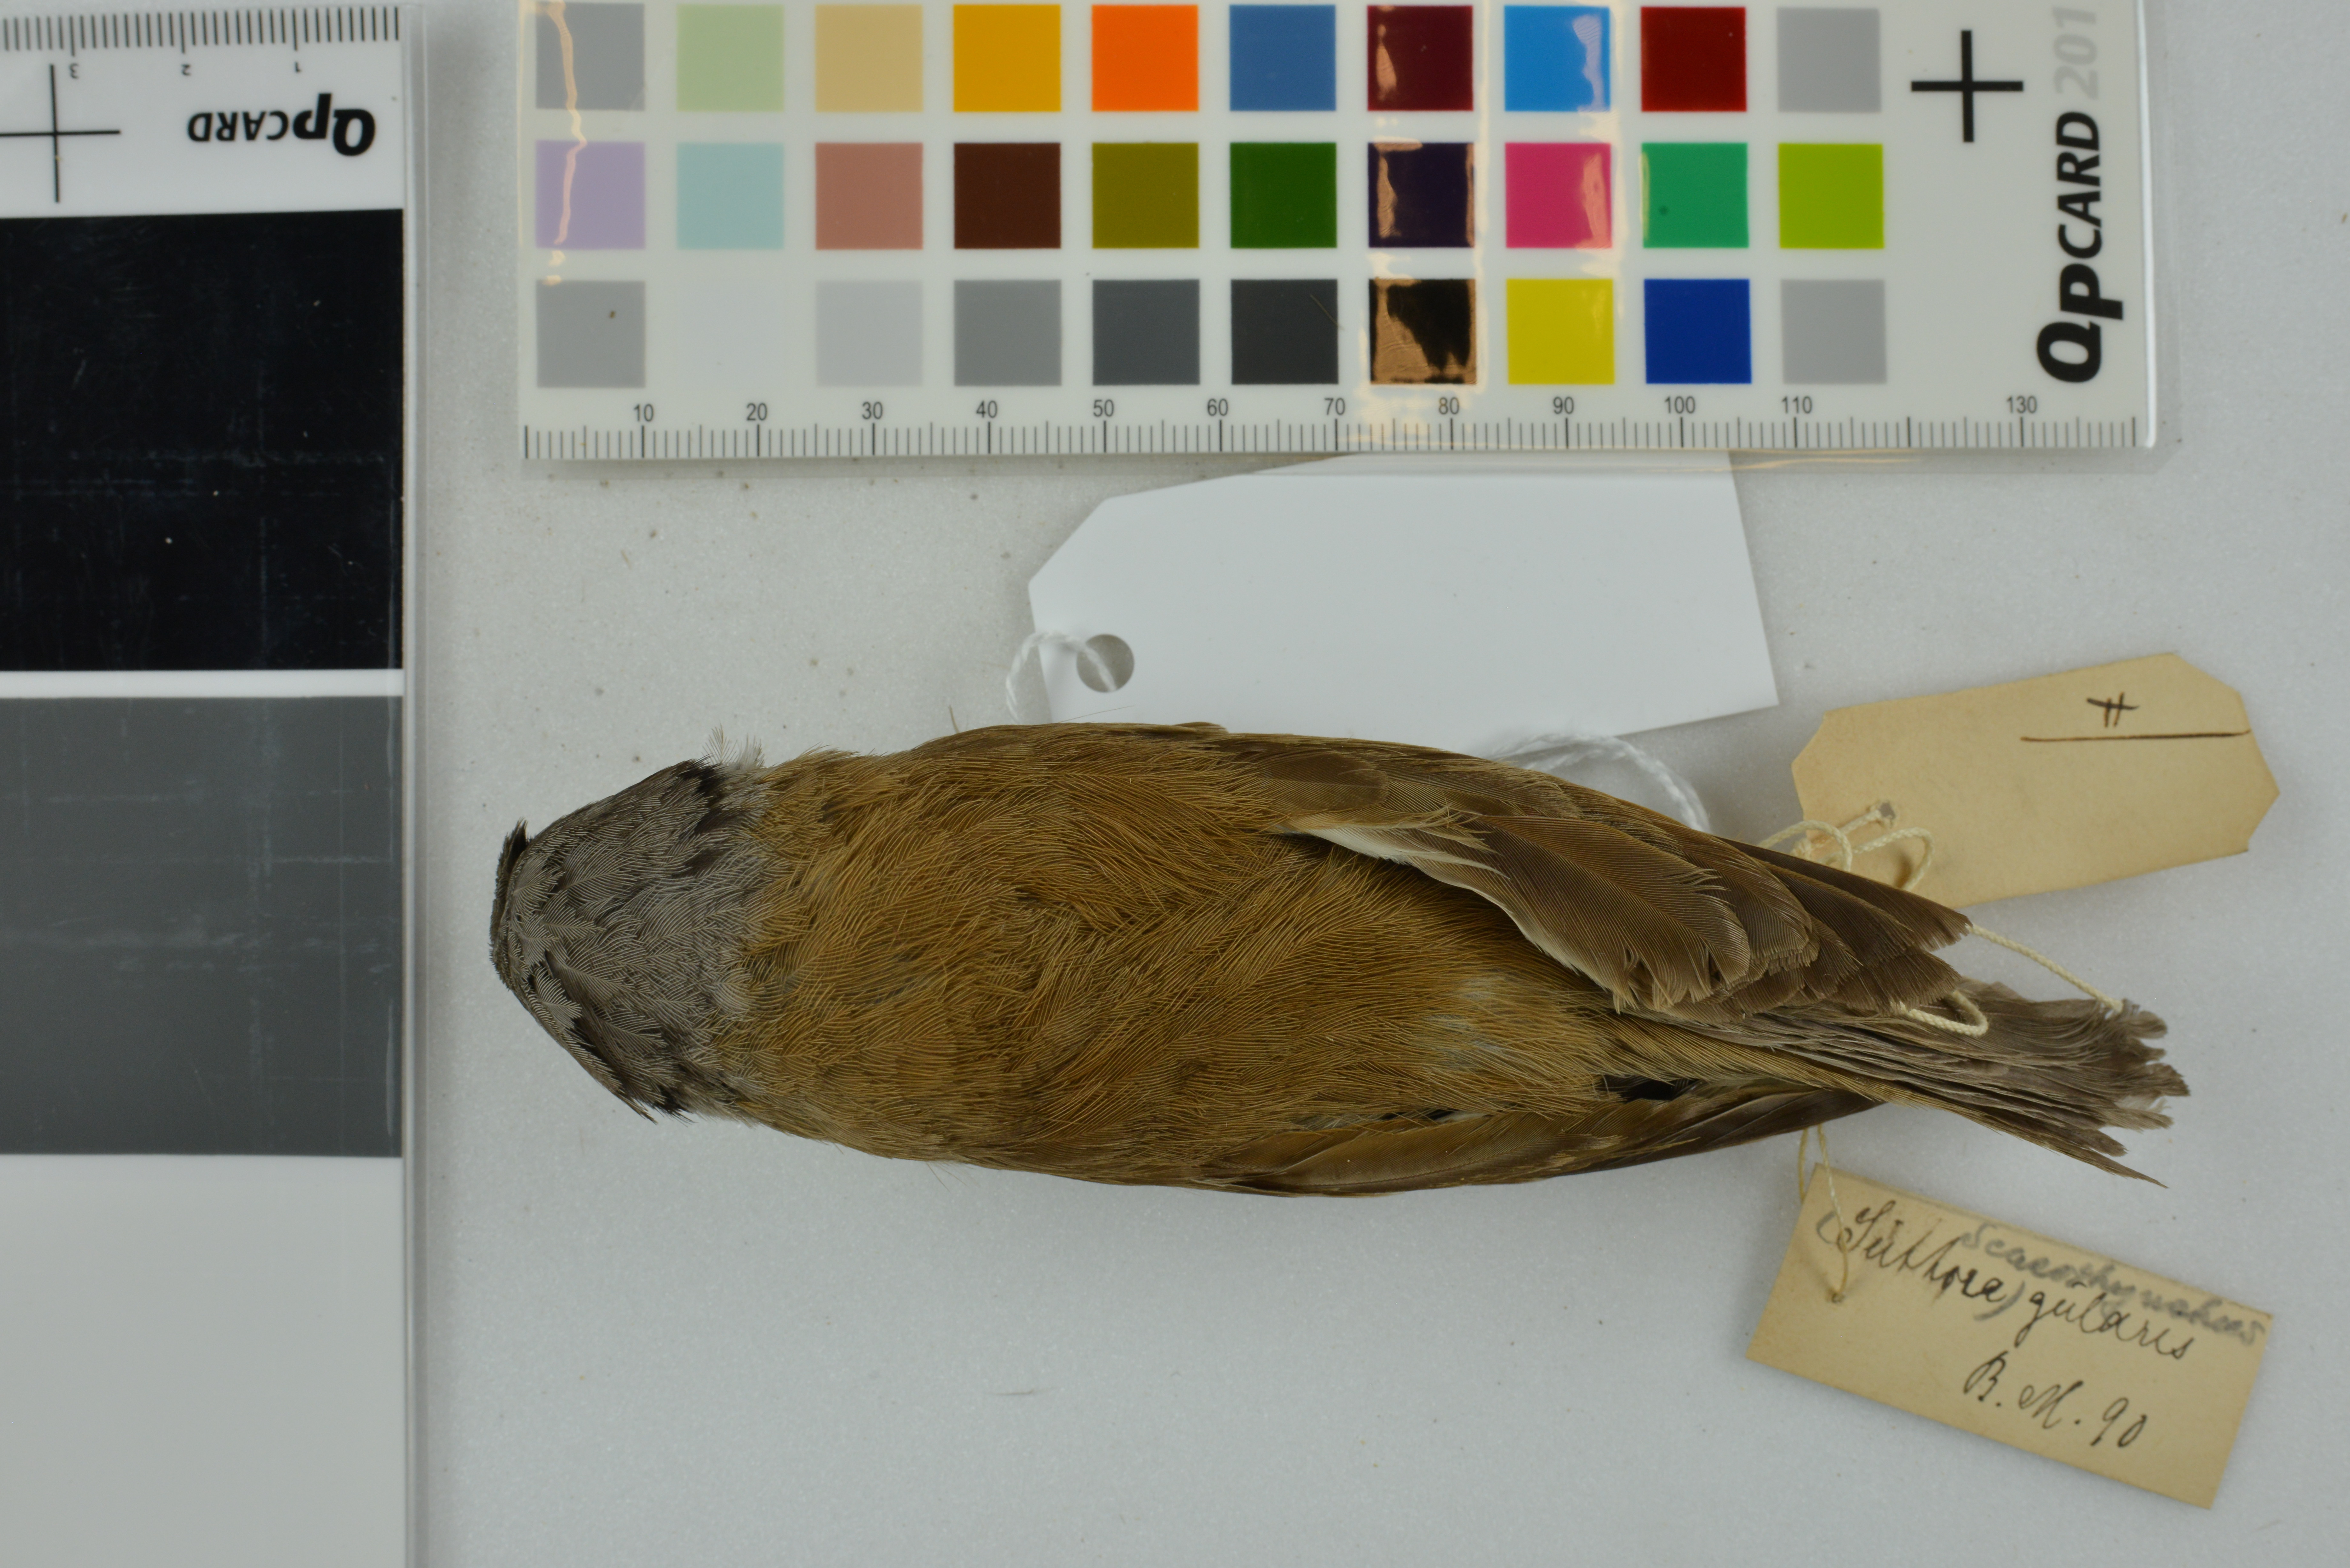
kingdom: Animalia
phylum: Chordata
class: Aves
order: Passeriformes
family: Sylviidae
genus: Psittiparus
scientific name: Psittiparus gularis
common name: Gray-headed parrotbill
